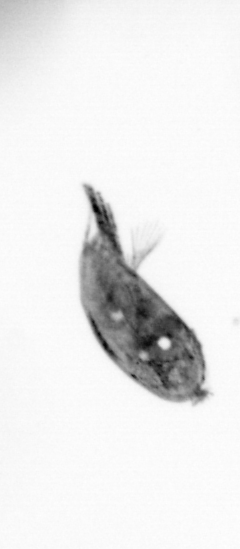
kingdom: Animalia
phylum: Arthropoda
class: Maxillopoda
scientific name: Maxillopoda
